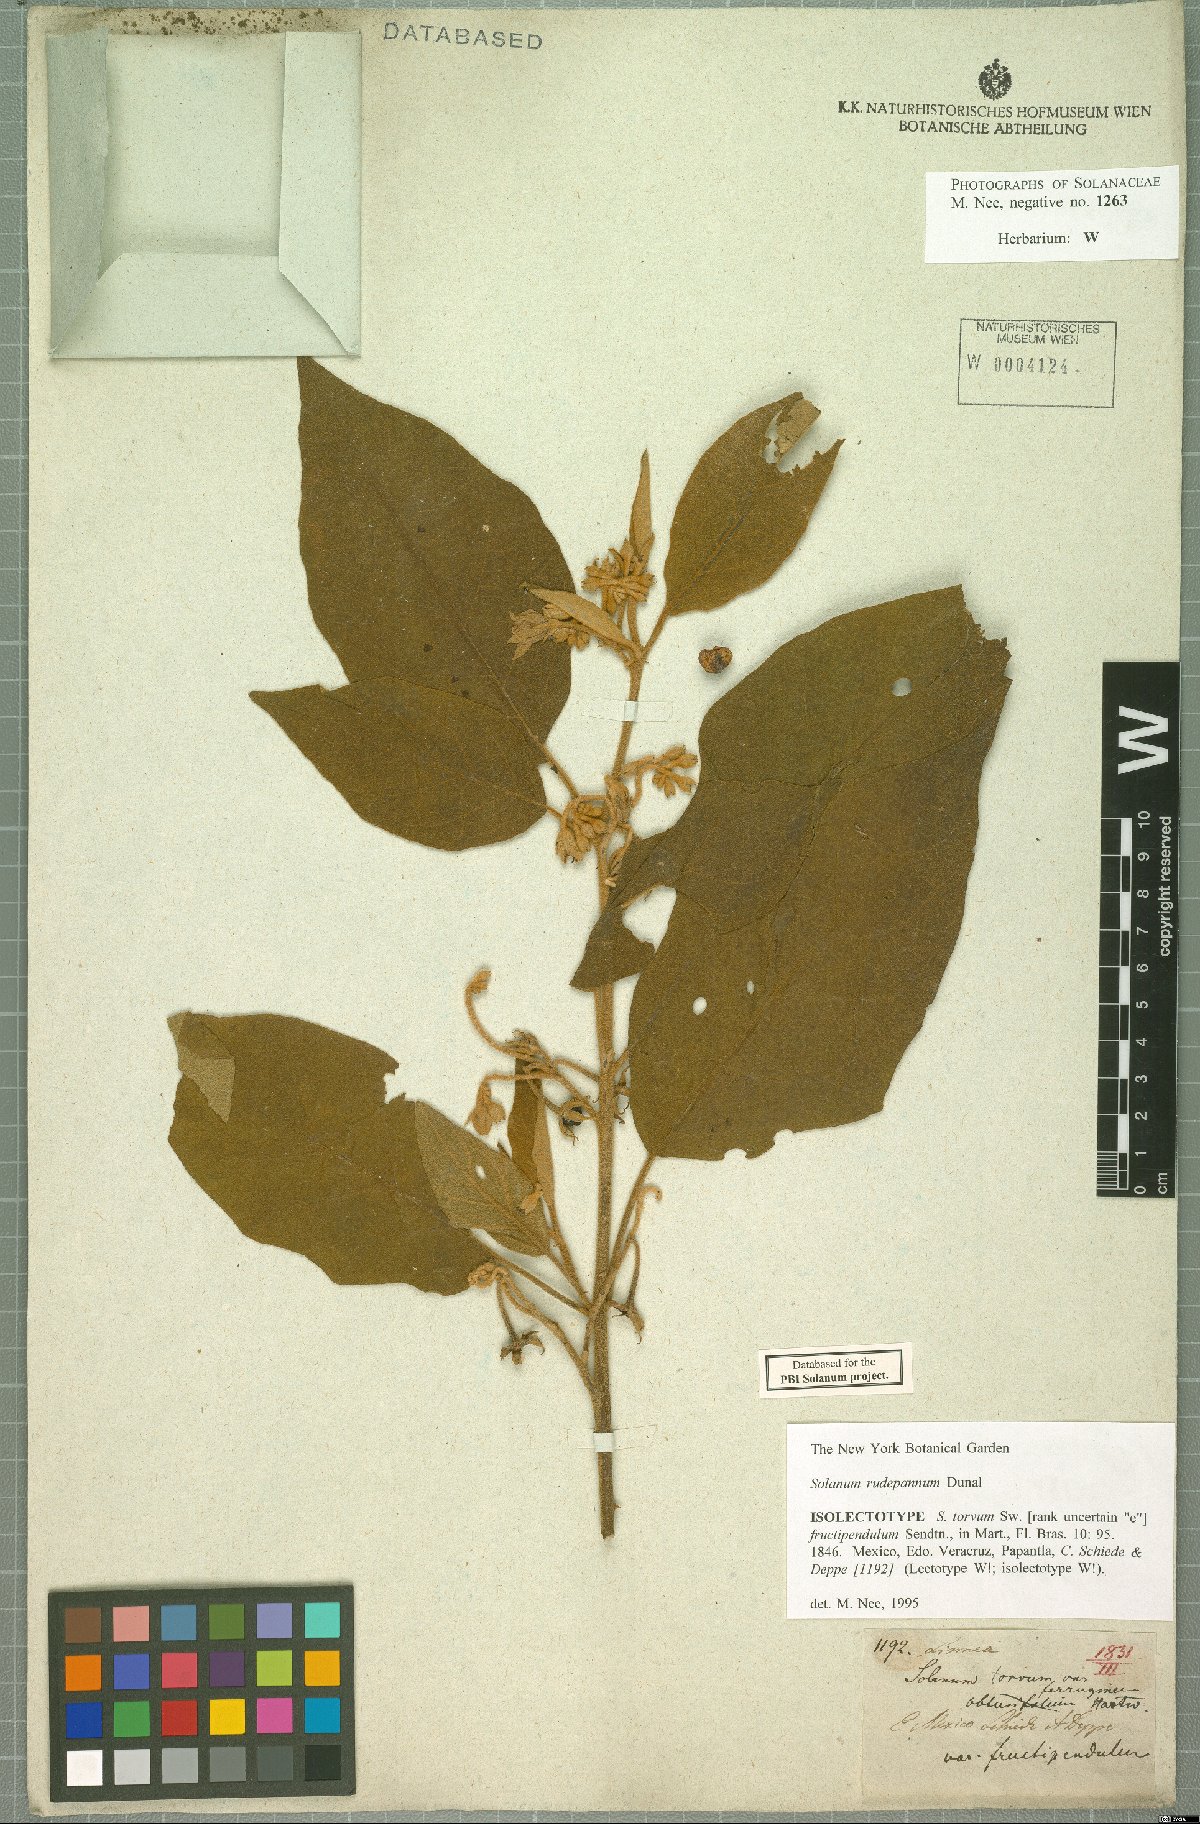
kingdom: Plantae
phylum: Tracheophyta
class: Magnoliopsida
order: Solanales
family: Solanaceae
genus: Solanum
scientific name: Solanum rude-pannum
